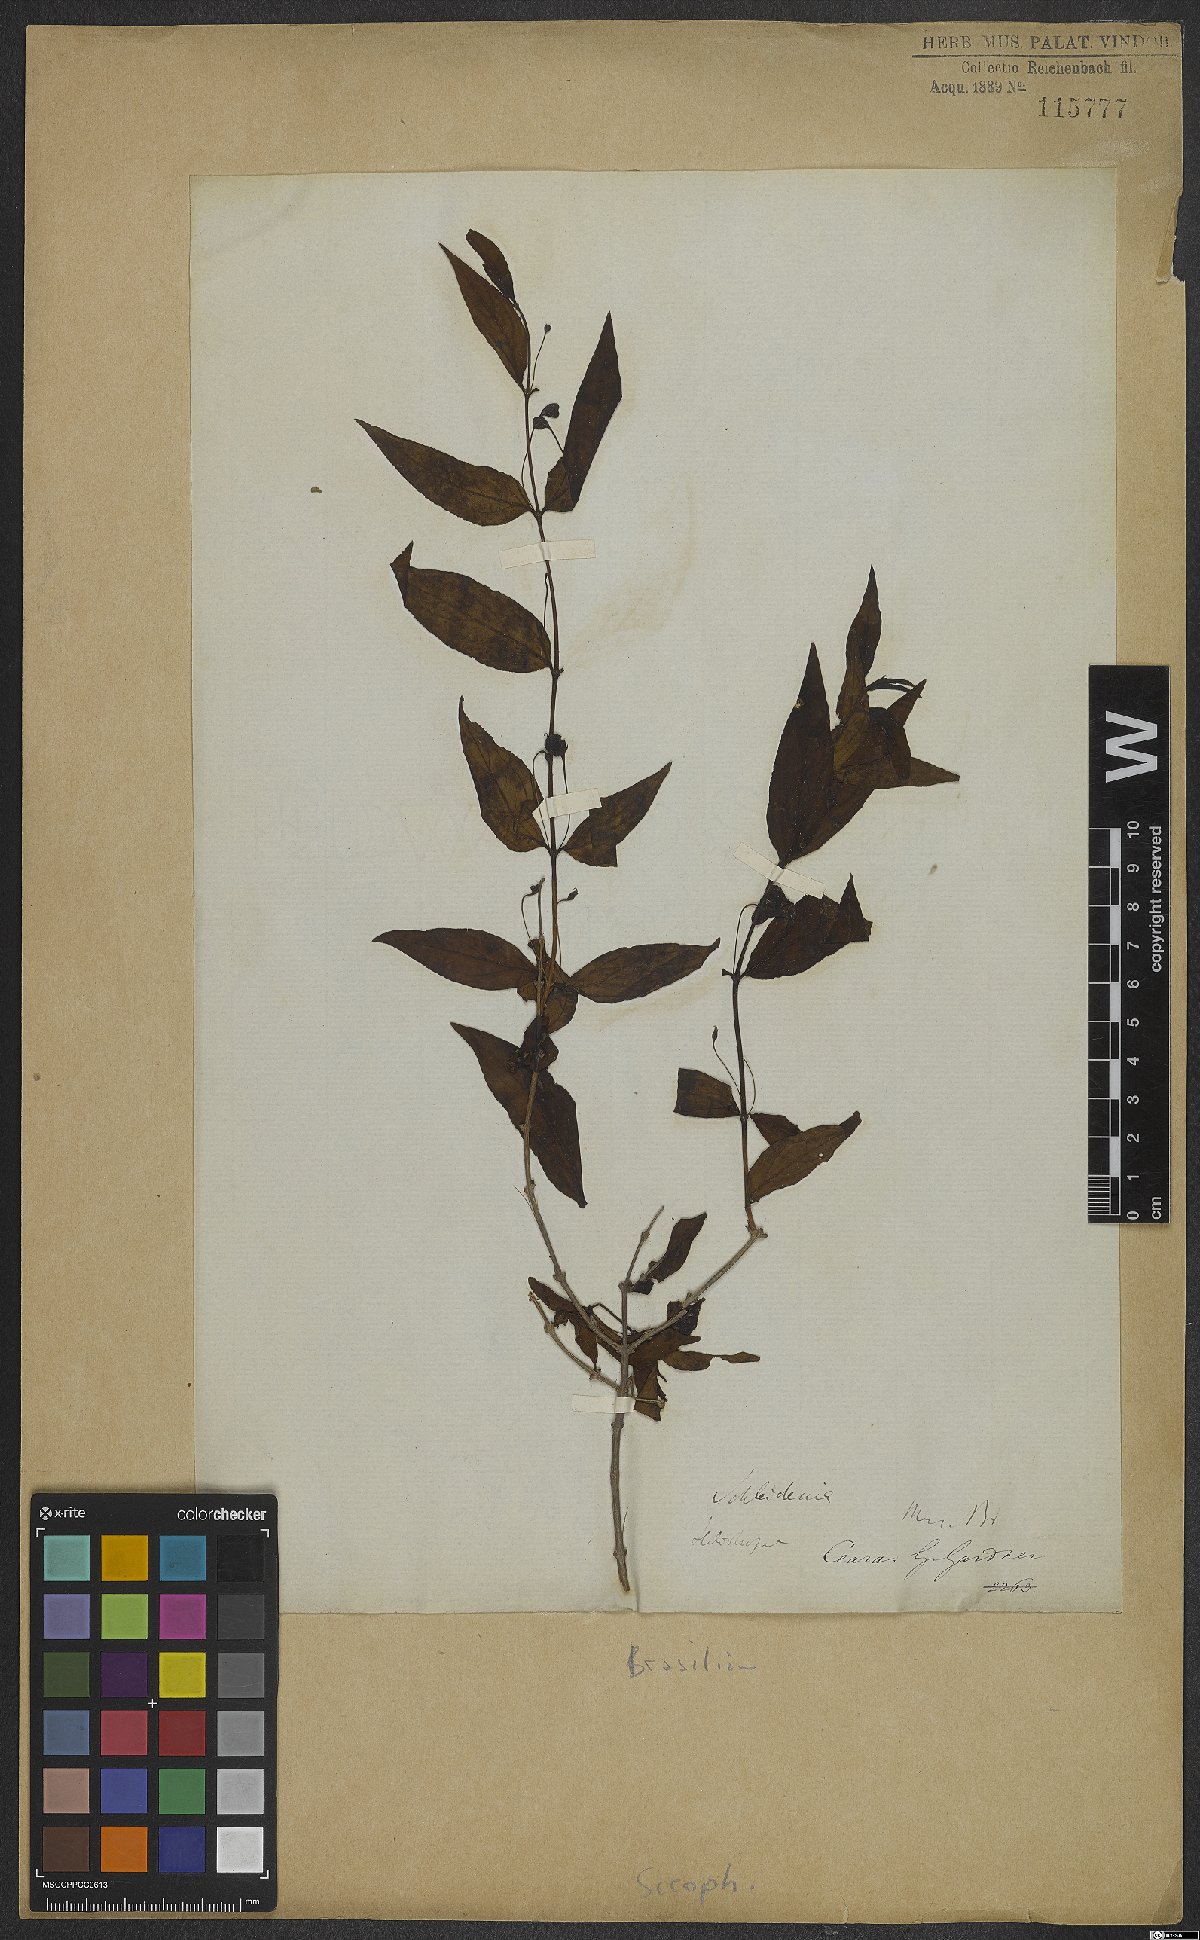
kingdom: Plantae
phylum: Tracheophyta
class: Magnoliopsida
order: Lamiales
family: Scrophulariaceae
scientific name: Scrophulariaceae
